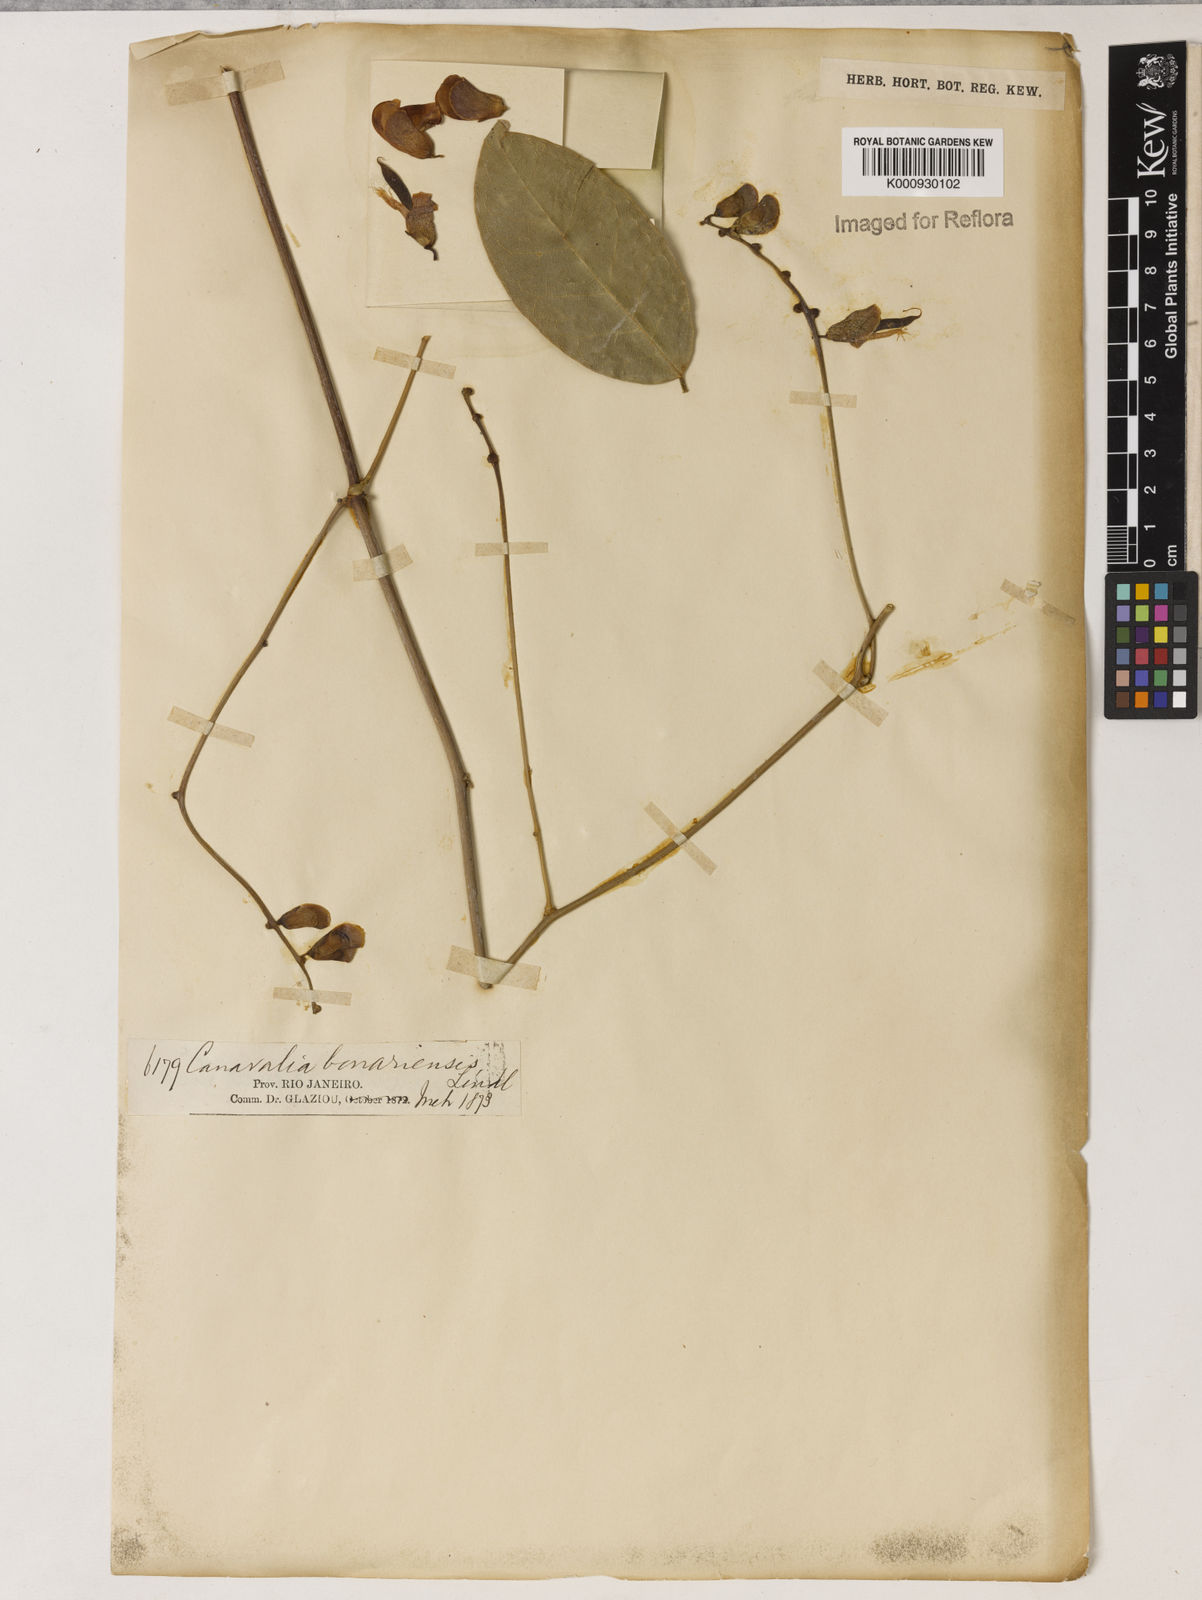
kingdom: Plantae
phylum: Tracheophyta
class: Magnoliopsida
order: Fabales
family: Fabaceae
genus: Canavalia
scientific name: Canavalia bonariensis
